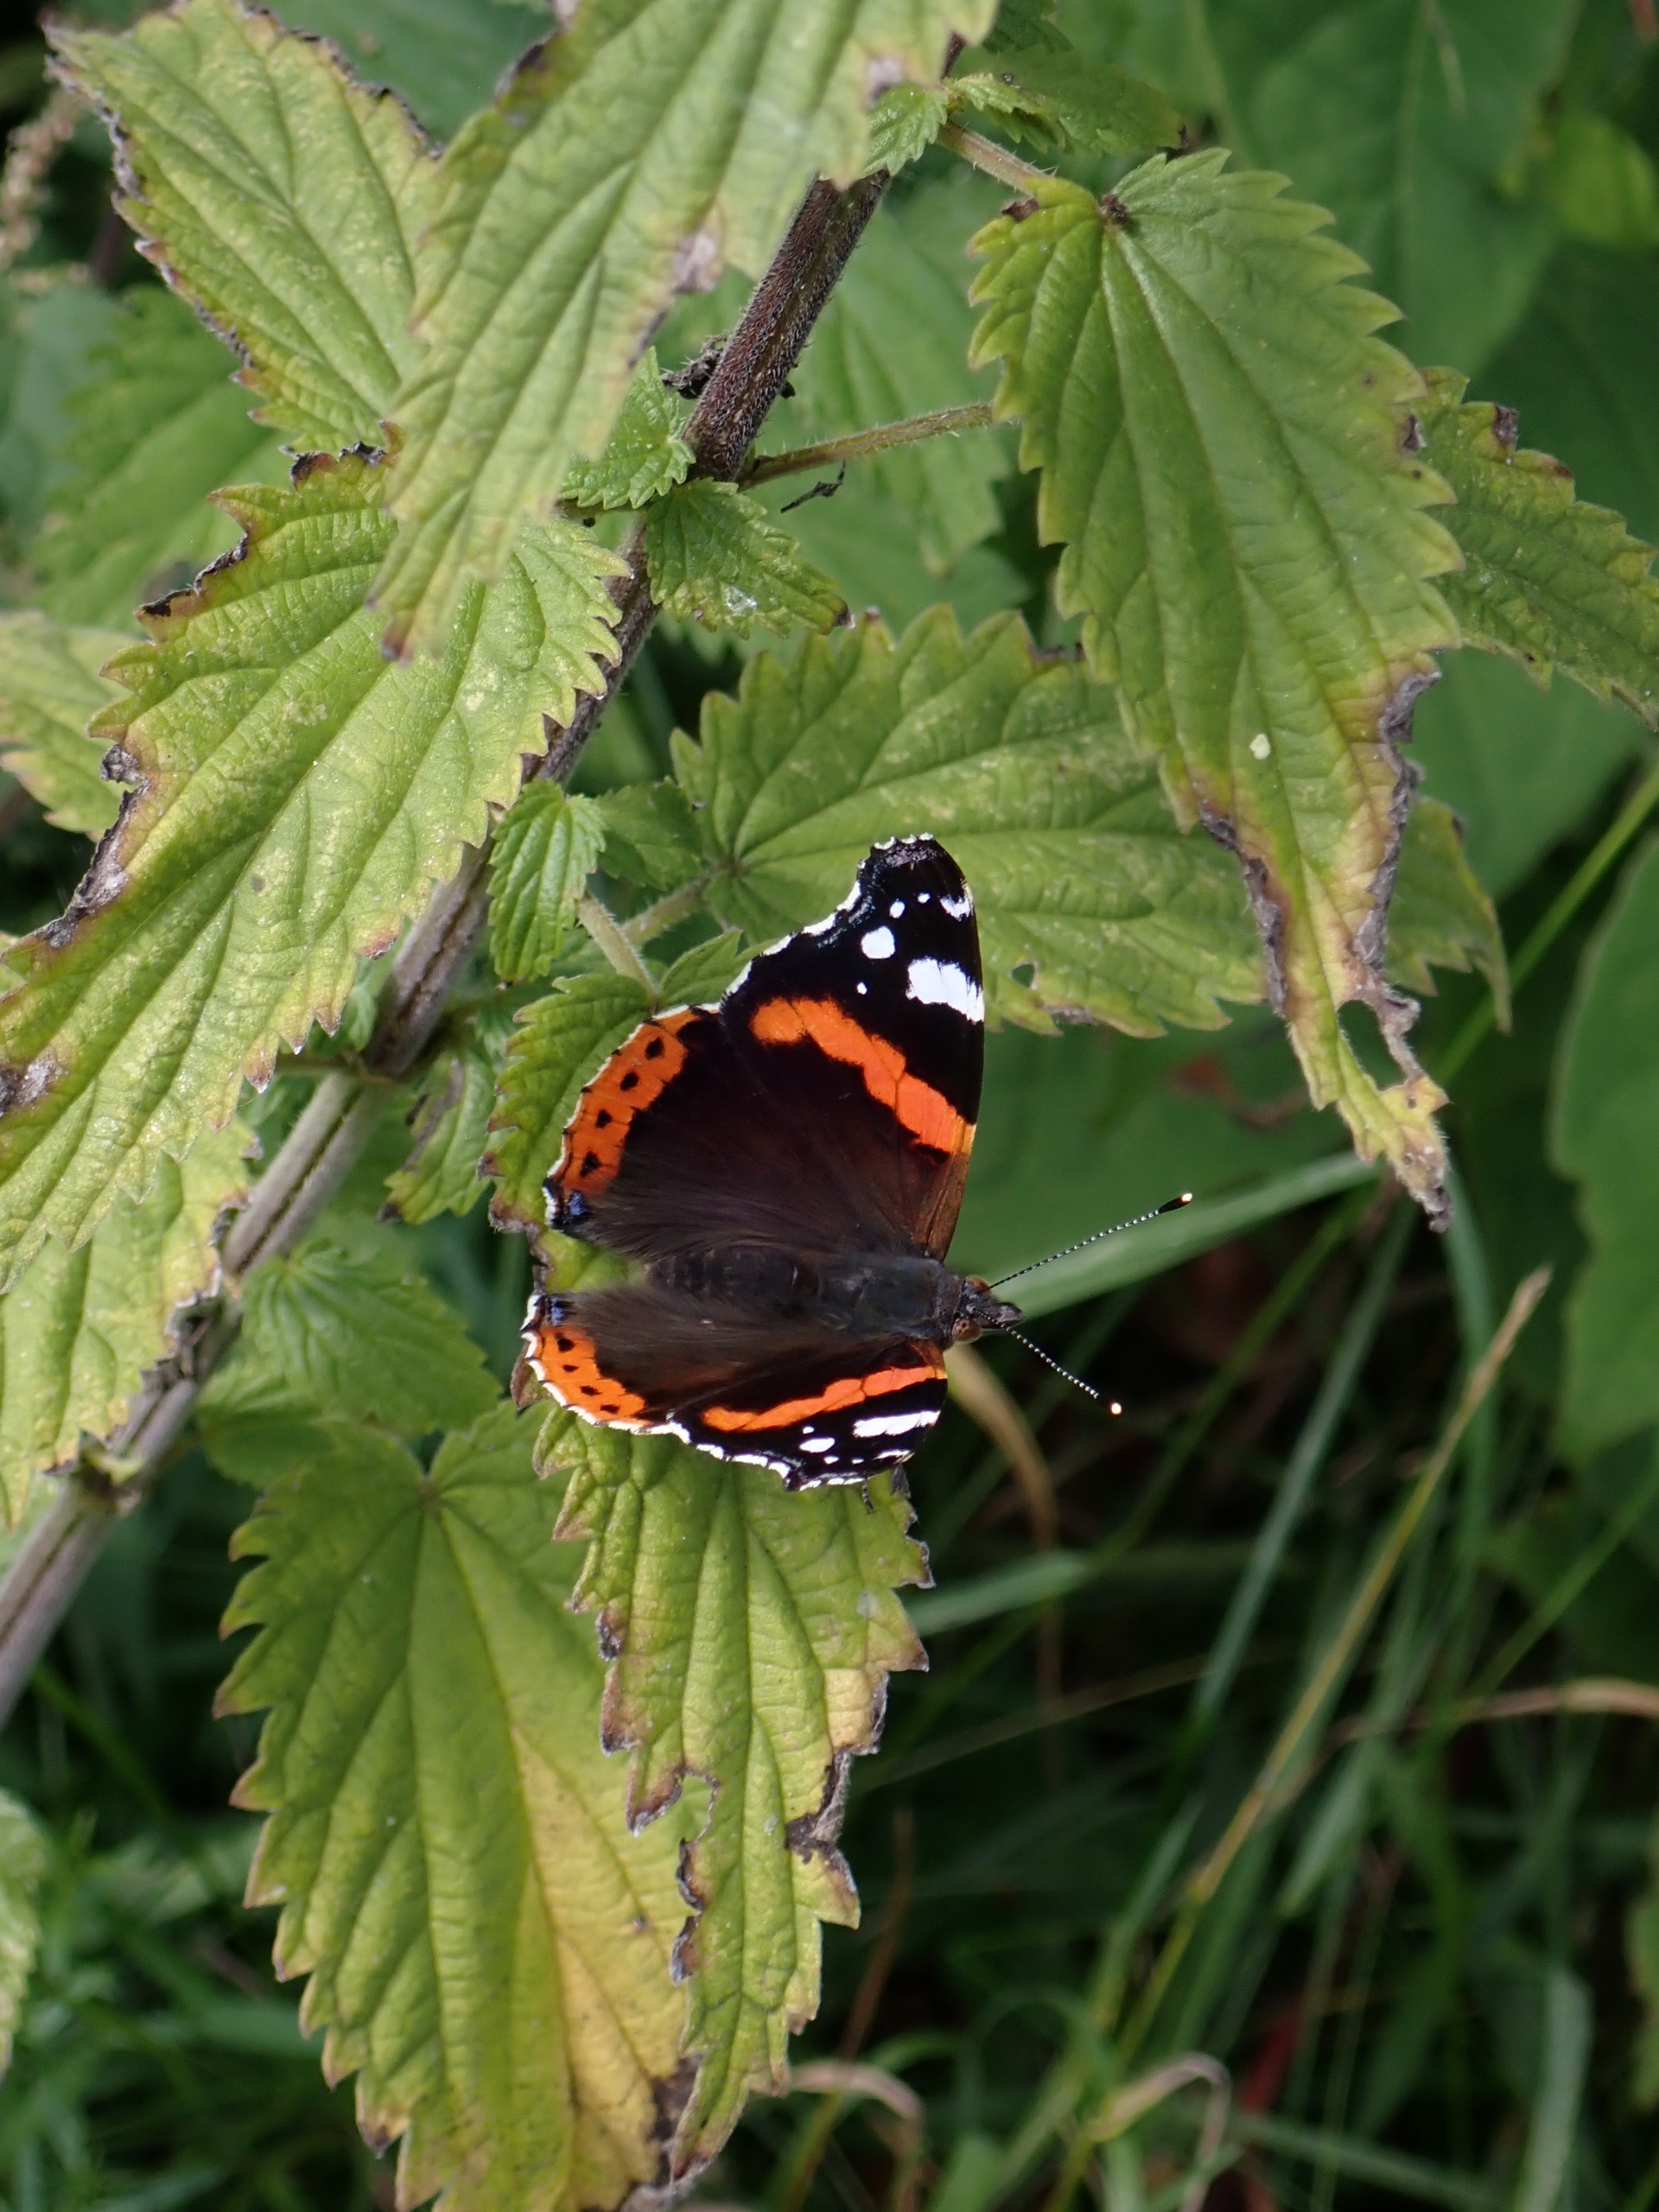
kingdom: Animalia
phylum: Arthropoda
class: Insecta
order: Lepidoptera
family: Nymphalidae
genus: Vanessa
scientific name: Vanessa atalanta
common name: Admiral
